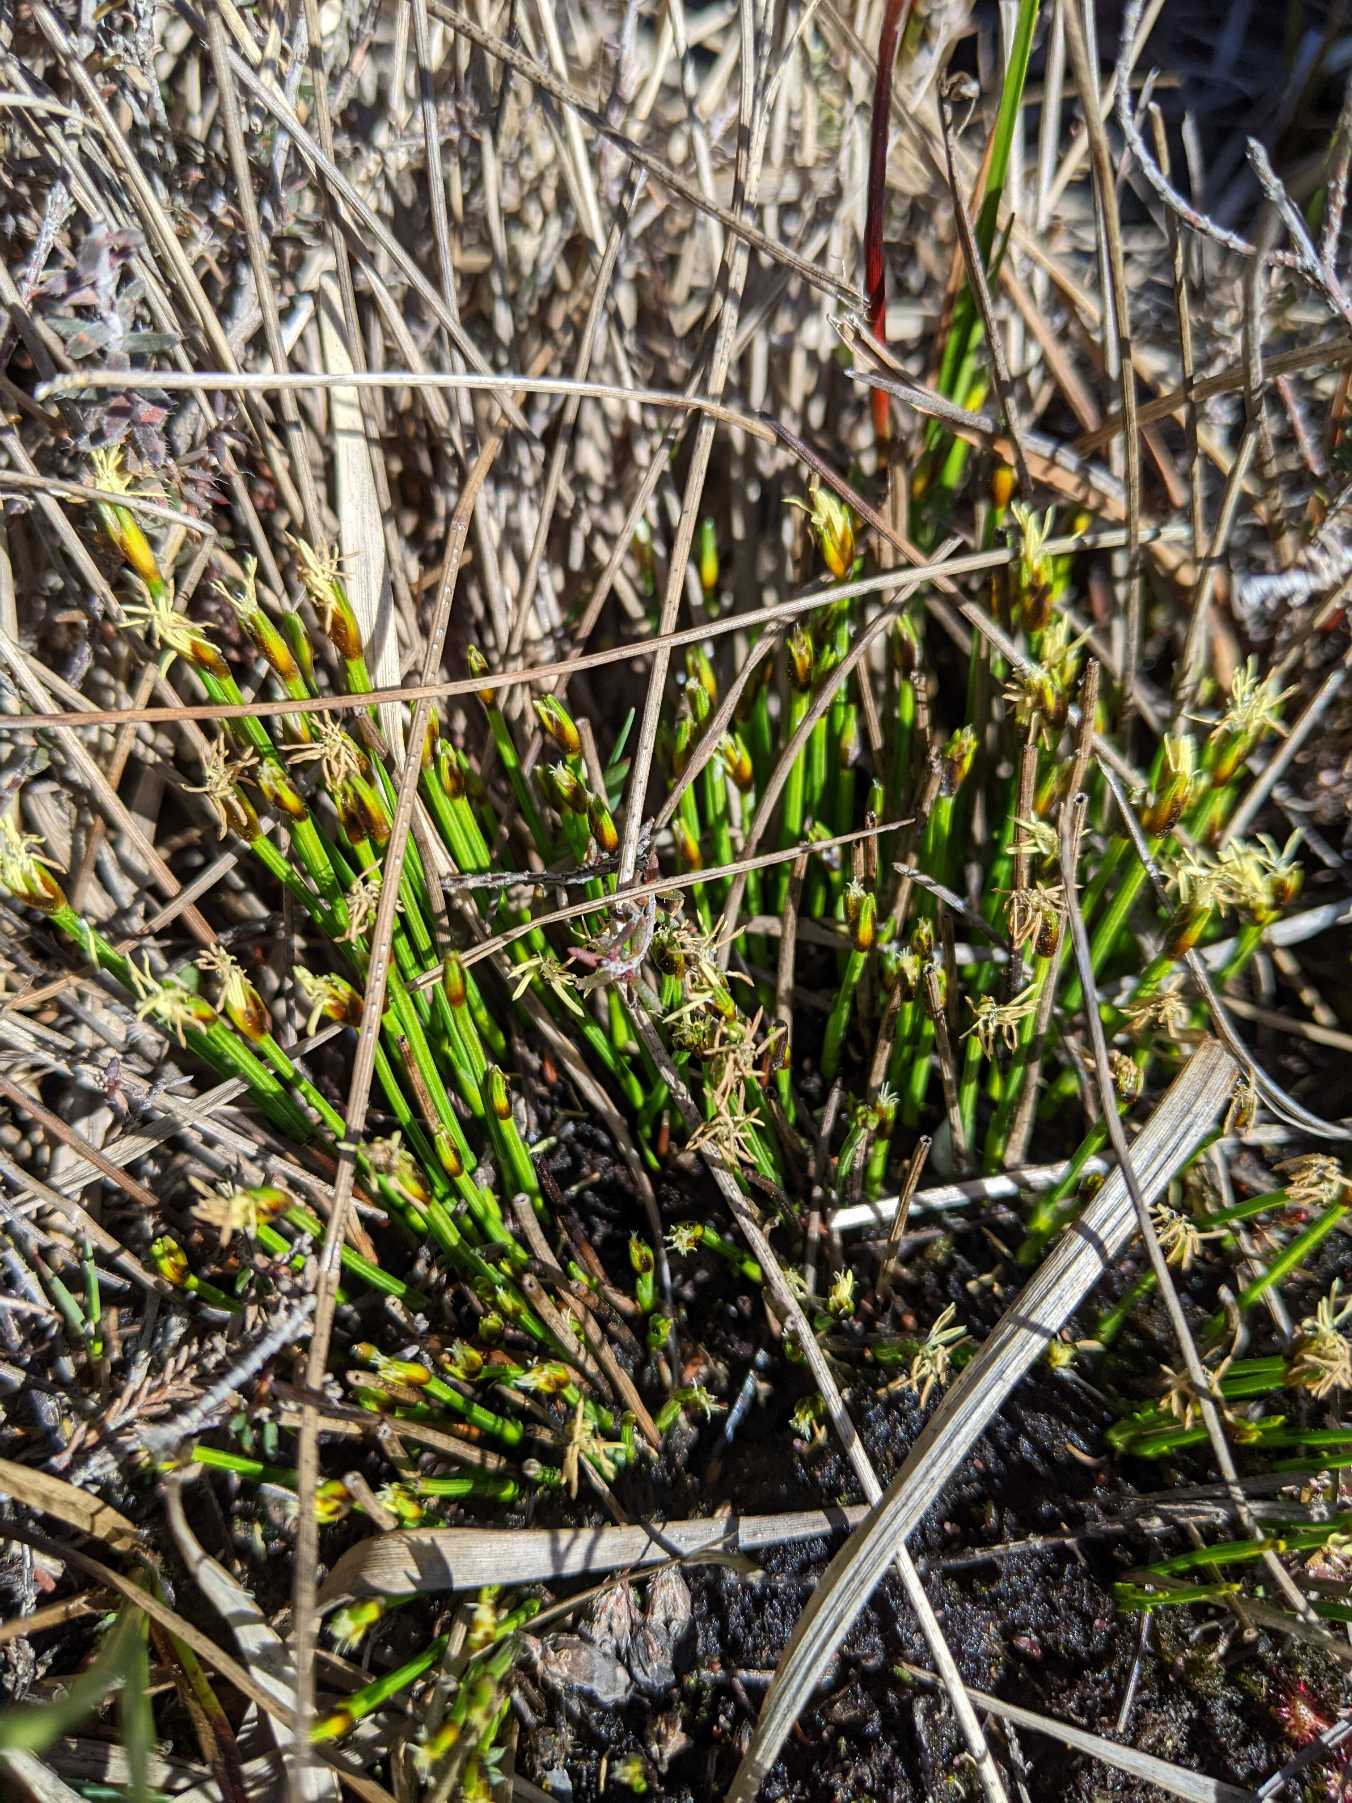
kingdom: Plantae
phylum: Tracheophyta
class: Liliopsida
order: Poales
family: Cyperaceae
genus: Trichophorum
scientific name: Trichophorum cespitosum
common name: Tuekogleaks
